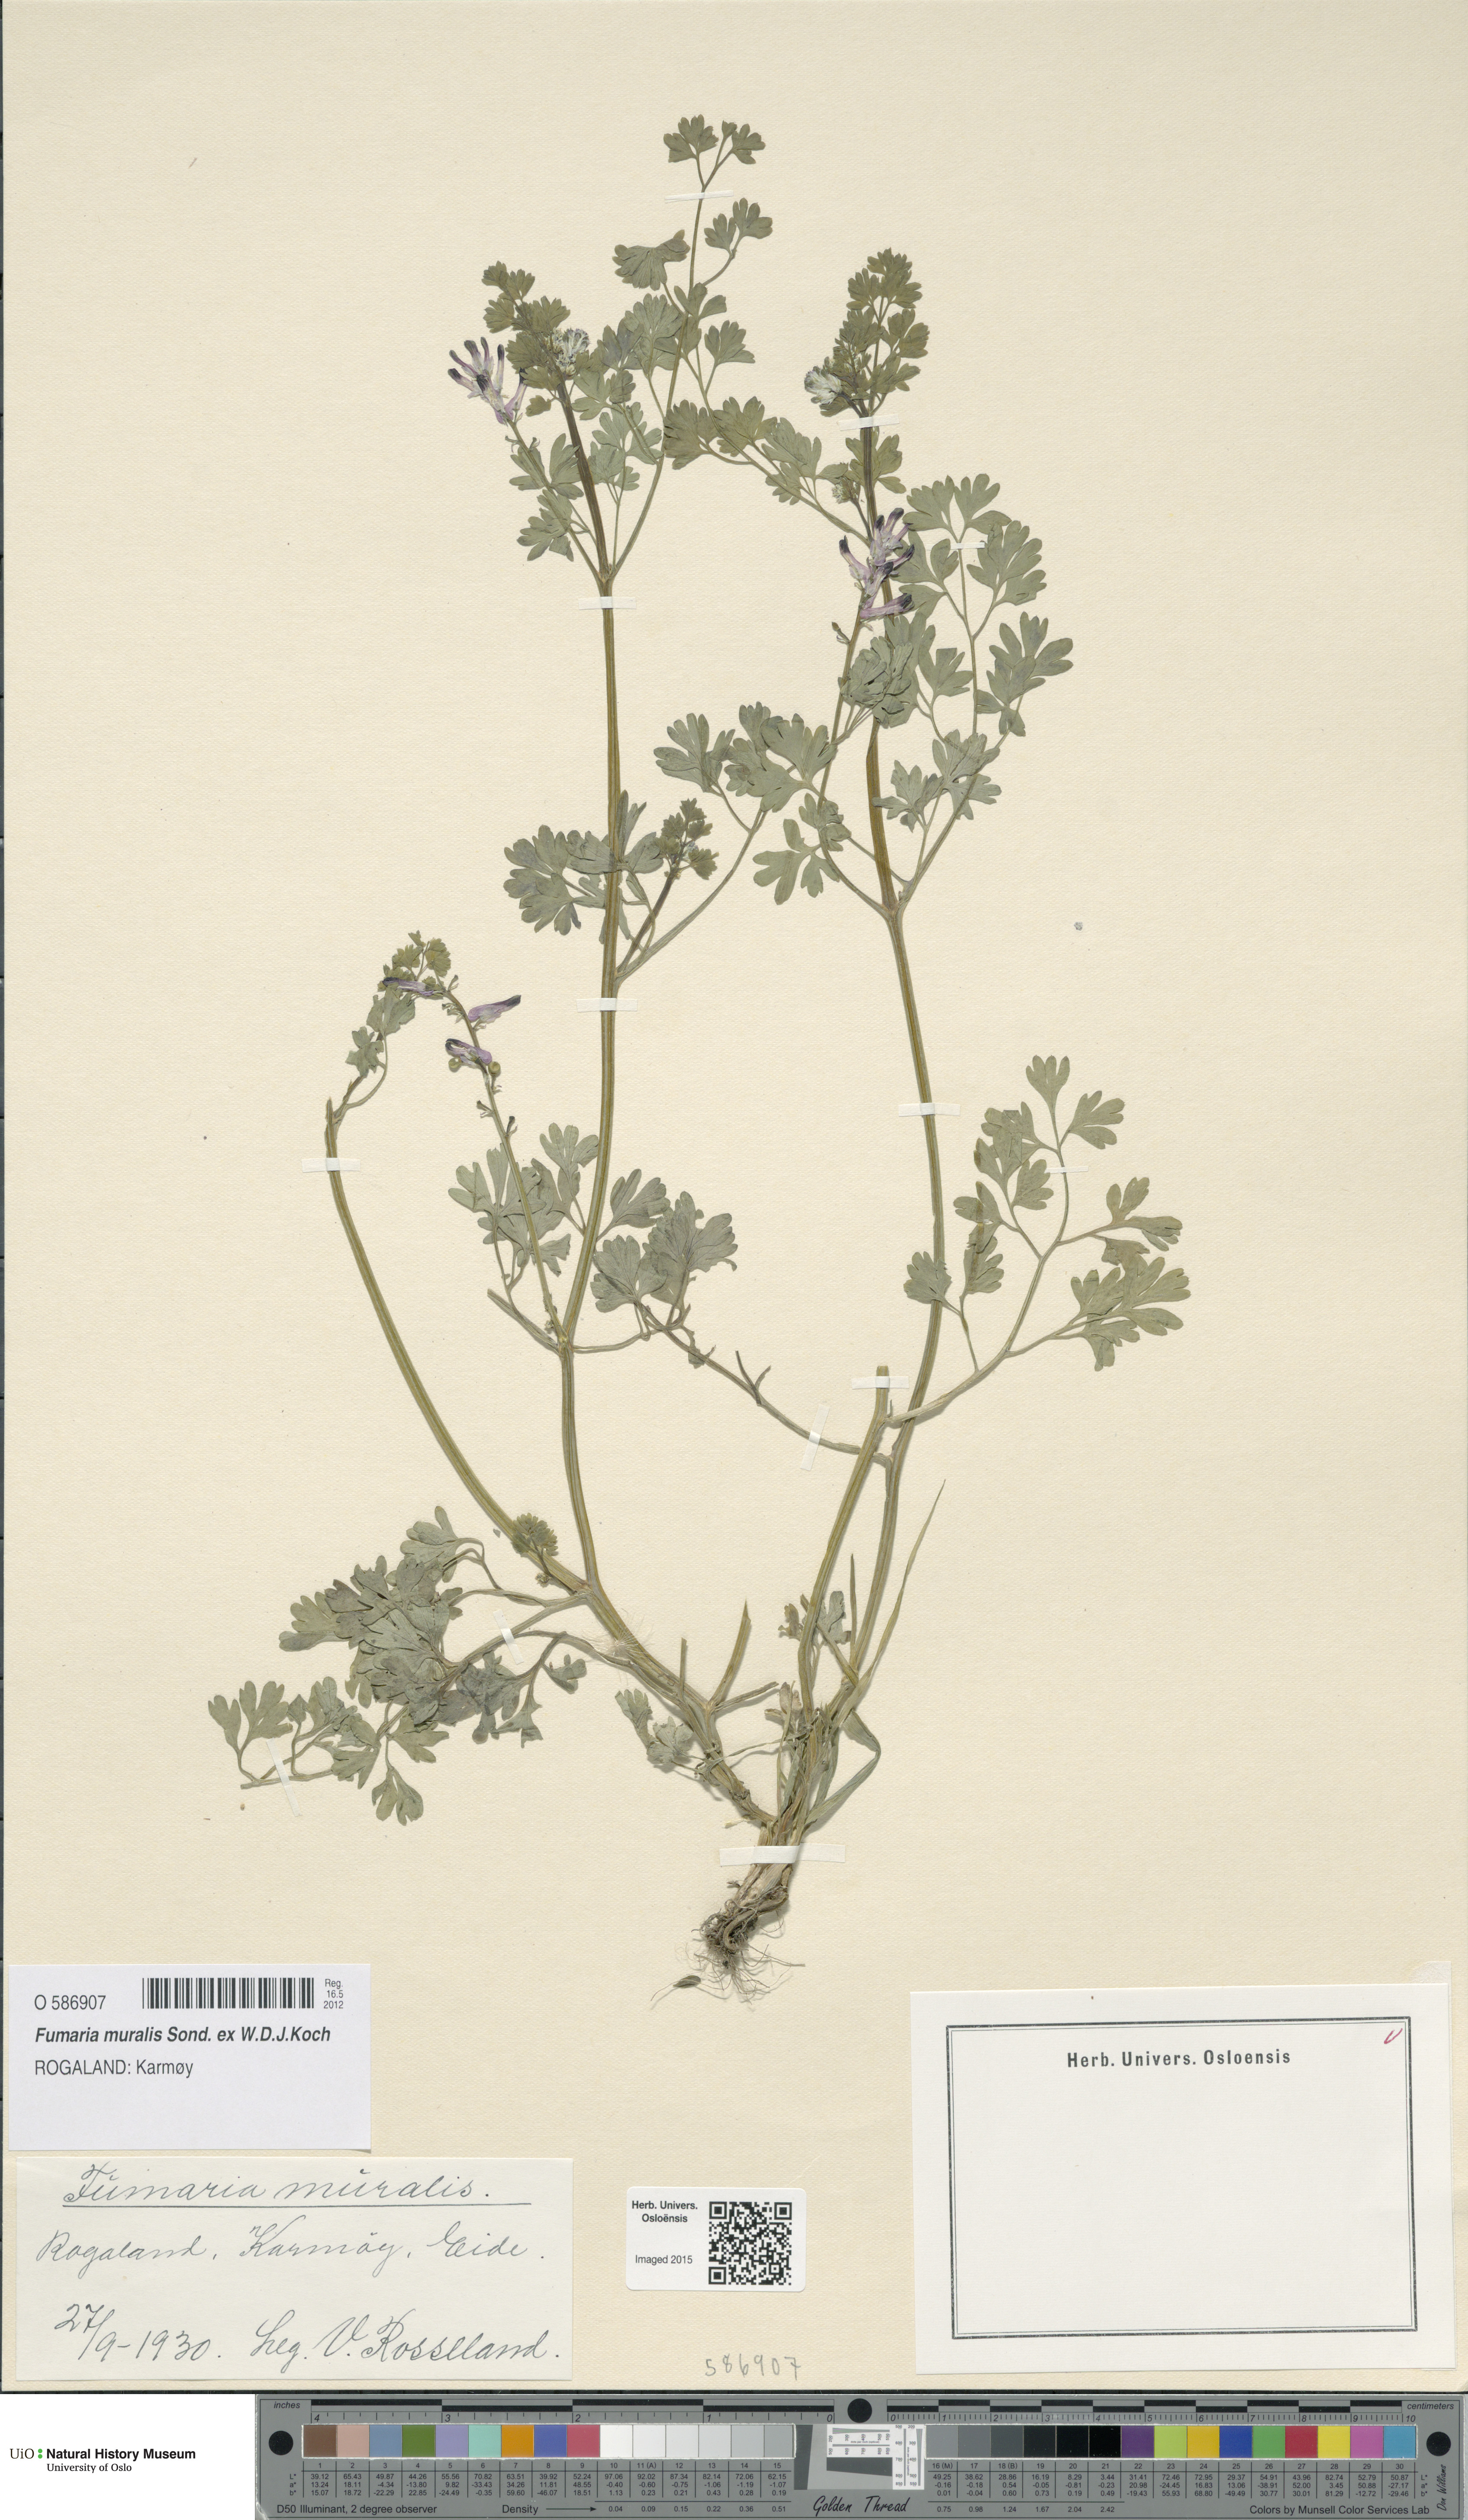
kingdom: Plantae
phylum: Tracheophyta
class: Magnoliopsida
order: Ranunculales
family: Papaveraceae
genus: Fumaria
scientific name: Fumaria muralis
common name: Common ramping-fumitory
